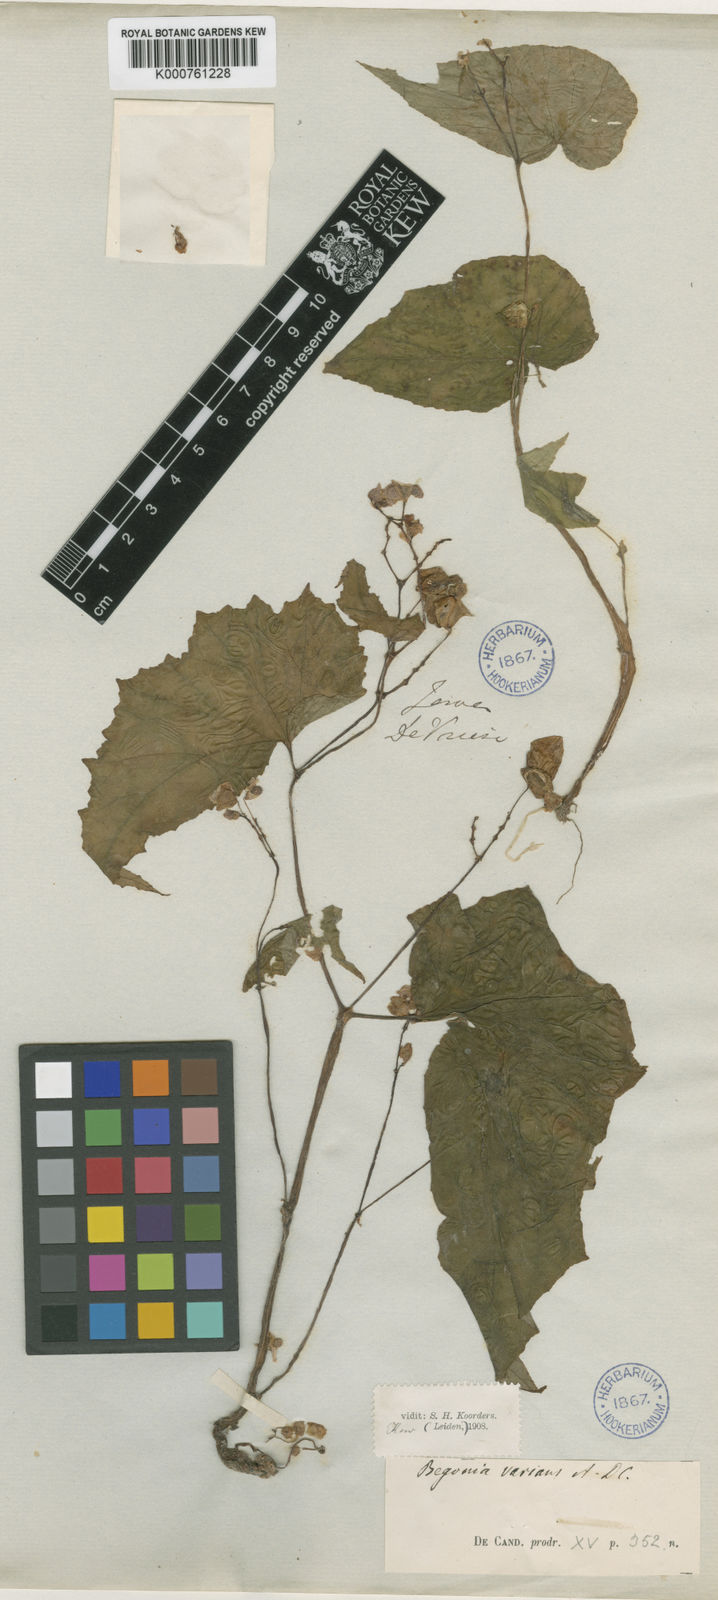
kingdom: Plantae
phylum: Tracheophyta
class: Magnoliopsida
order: Cucurbitales
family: Begoniaceae
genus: Begonia
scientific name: Begonia tenuifolia
